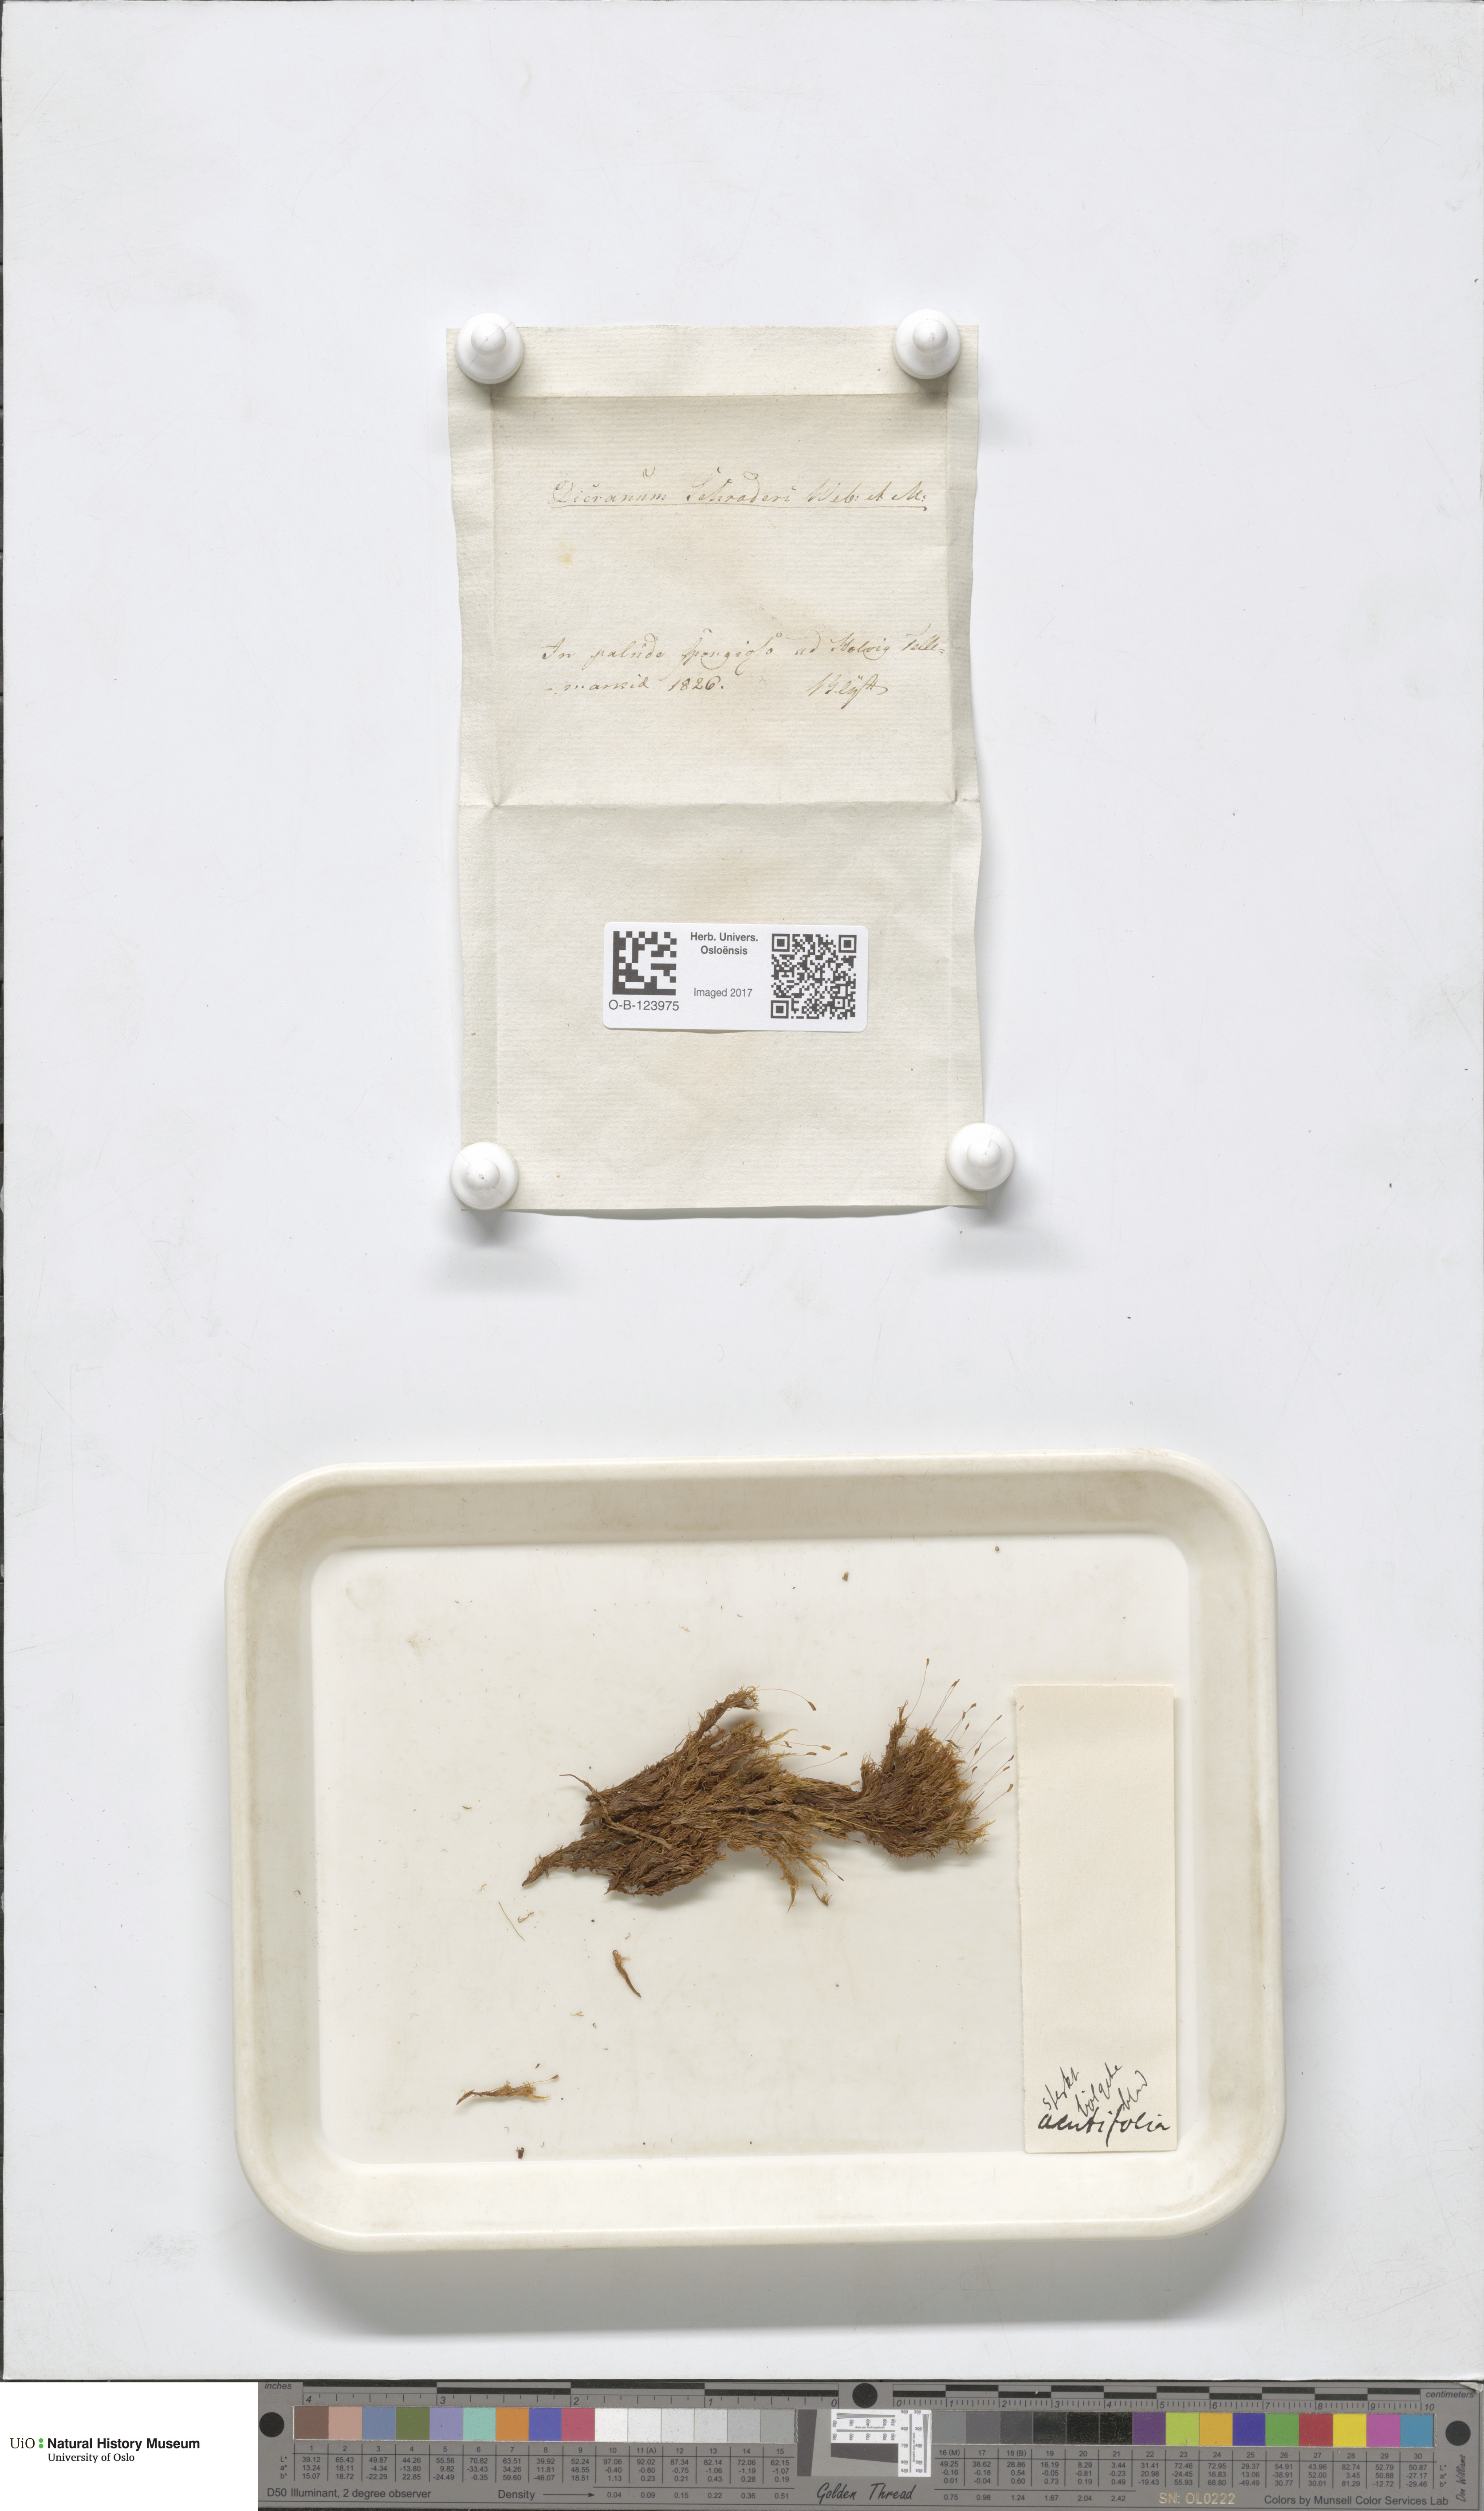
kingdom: Plantae
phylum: Bryophyta
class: Bryopsida
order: Dicranales
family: Dicranaceae
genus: Dicranum
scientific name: Dicranum undulatum
